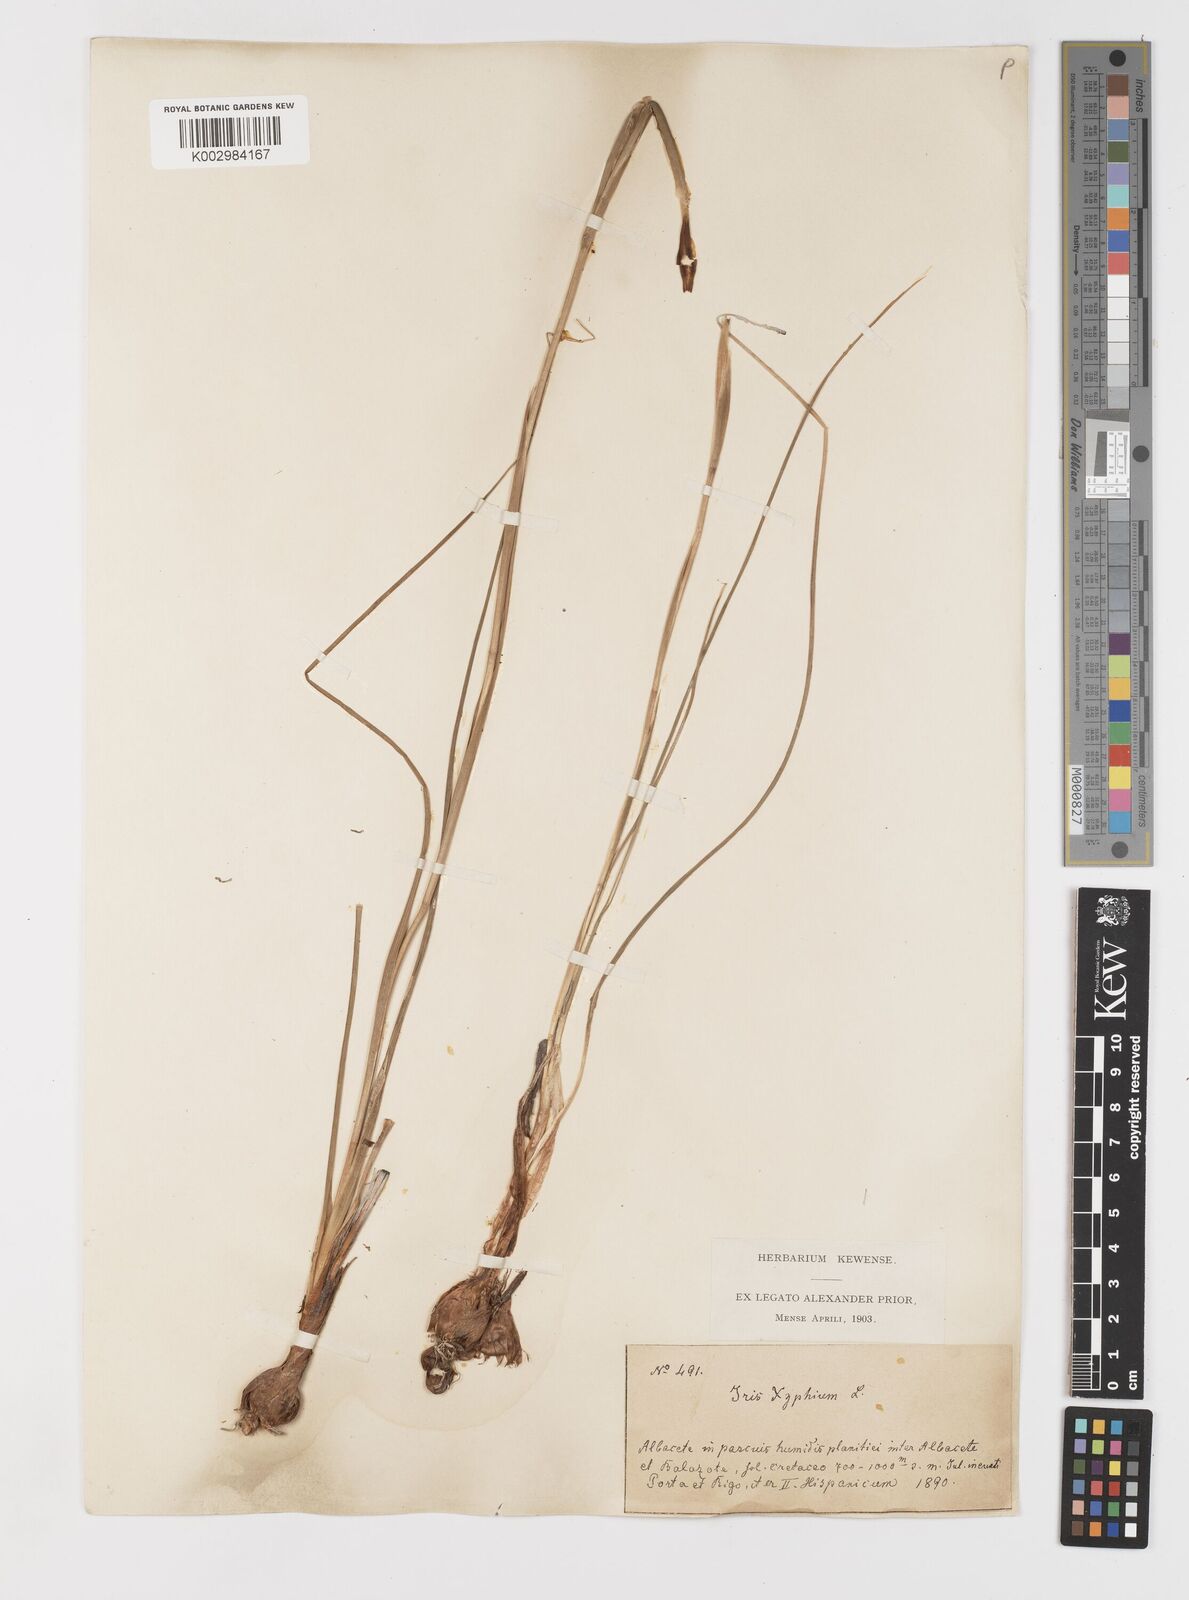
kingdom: Plantae
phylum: Tracheophyta
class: Liliopsida
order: Asparagales
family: Iridaceae
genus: Iris
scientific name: Iris xiphium
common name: Spanish iris
